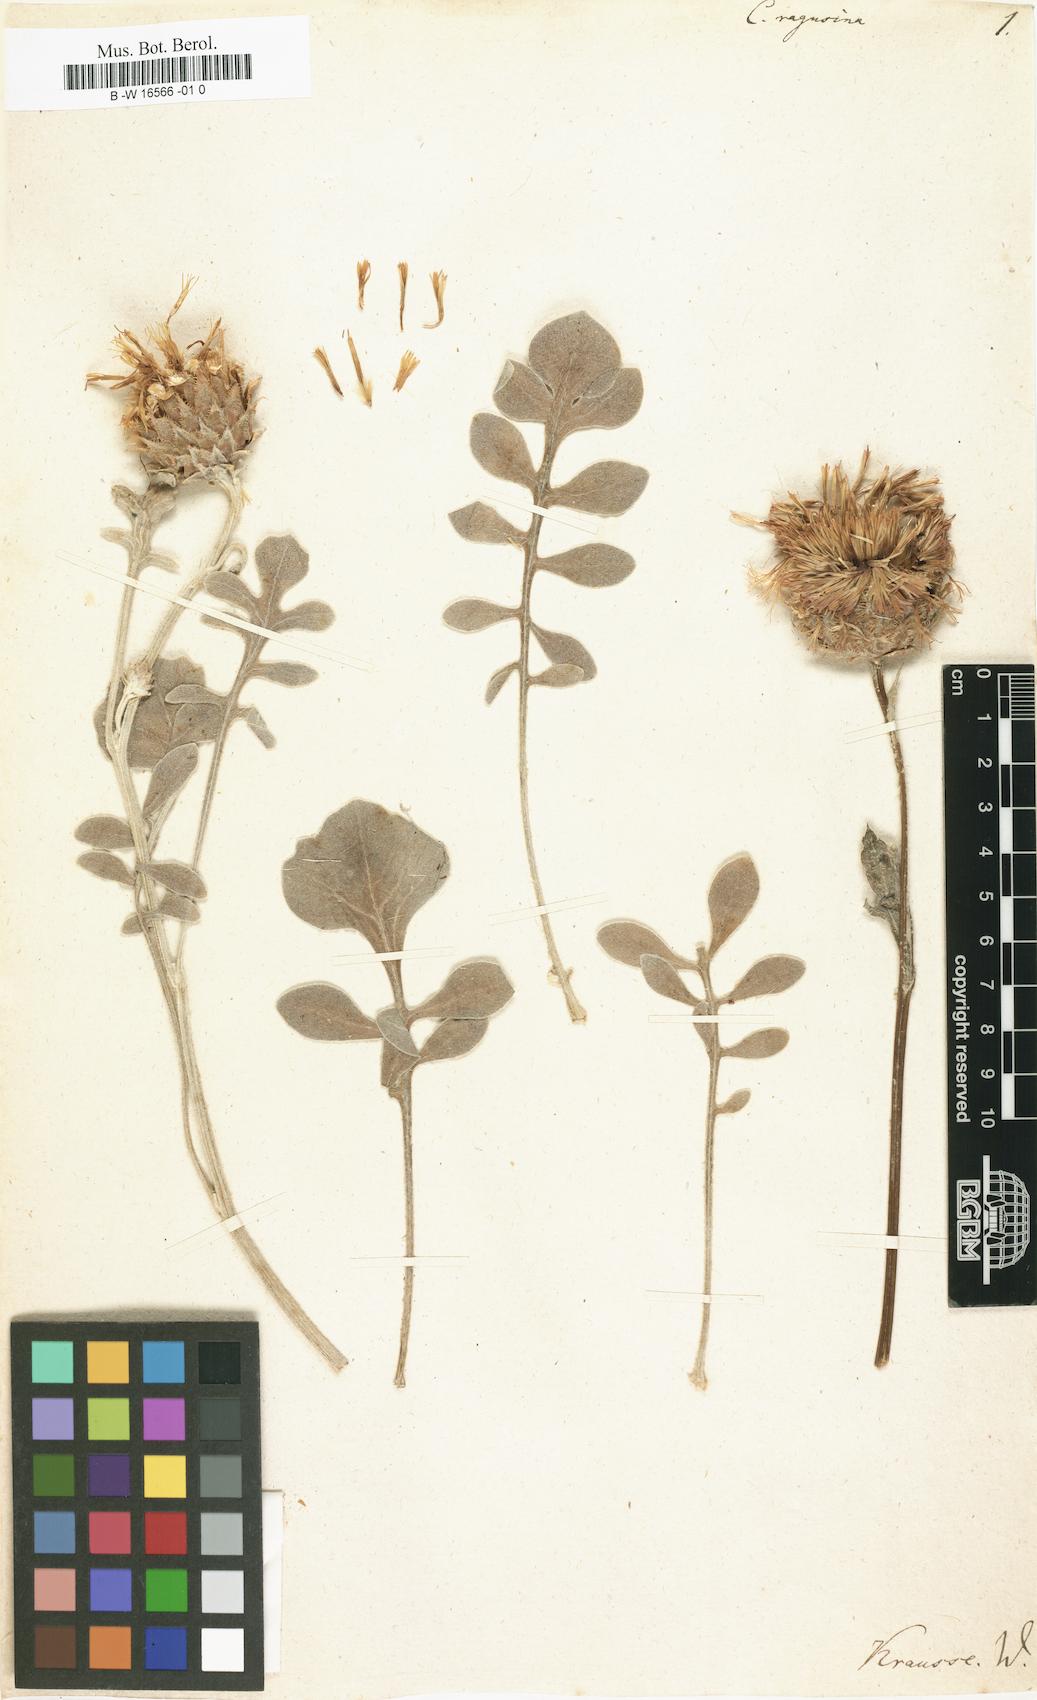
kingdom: Plantae
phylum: Tracheophyta
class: Magnoliopsida
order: Asterales
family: Asteraceae
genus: Centaurea
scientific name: Centaurea ragusina
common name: Dusty-miller
